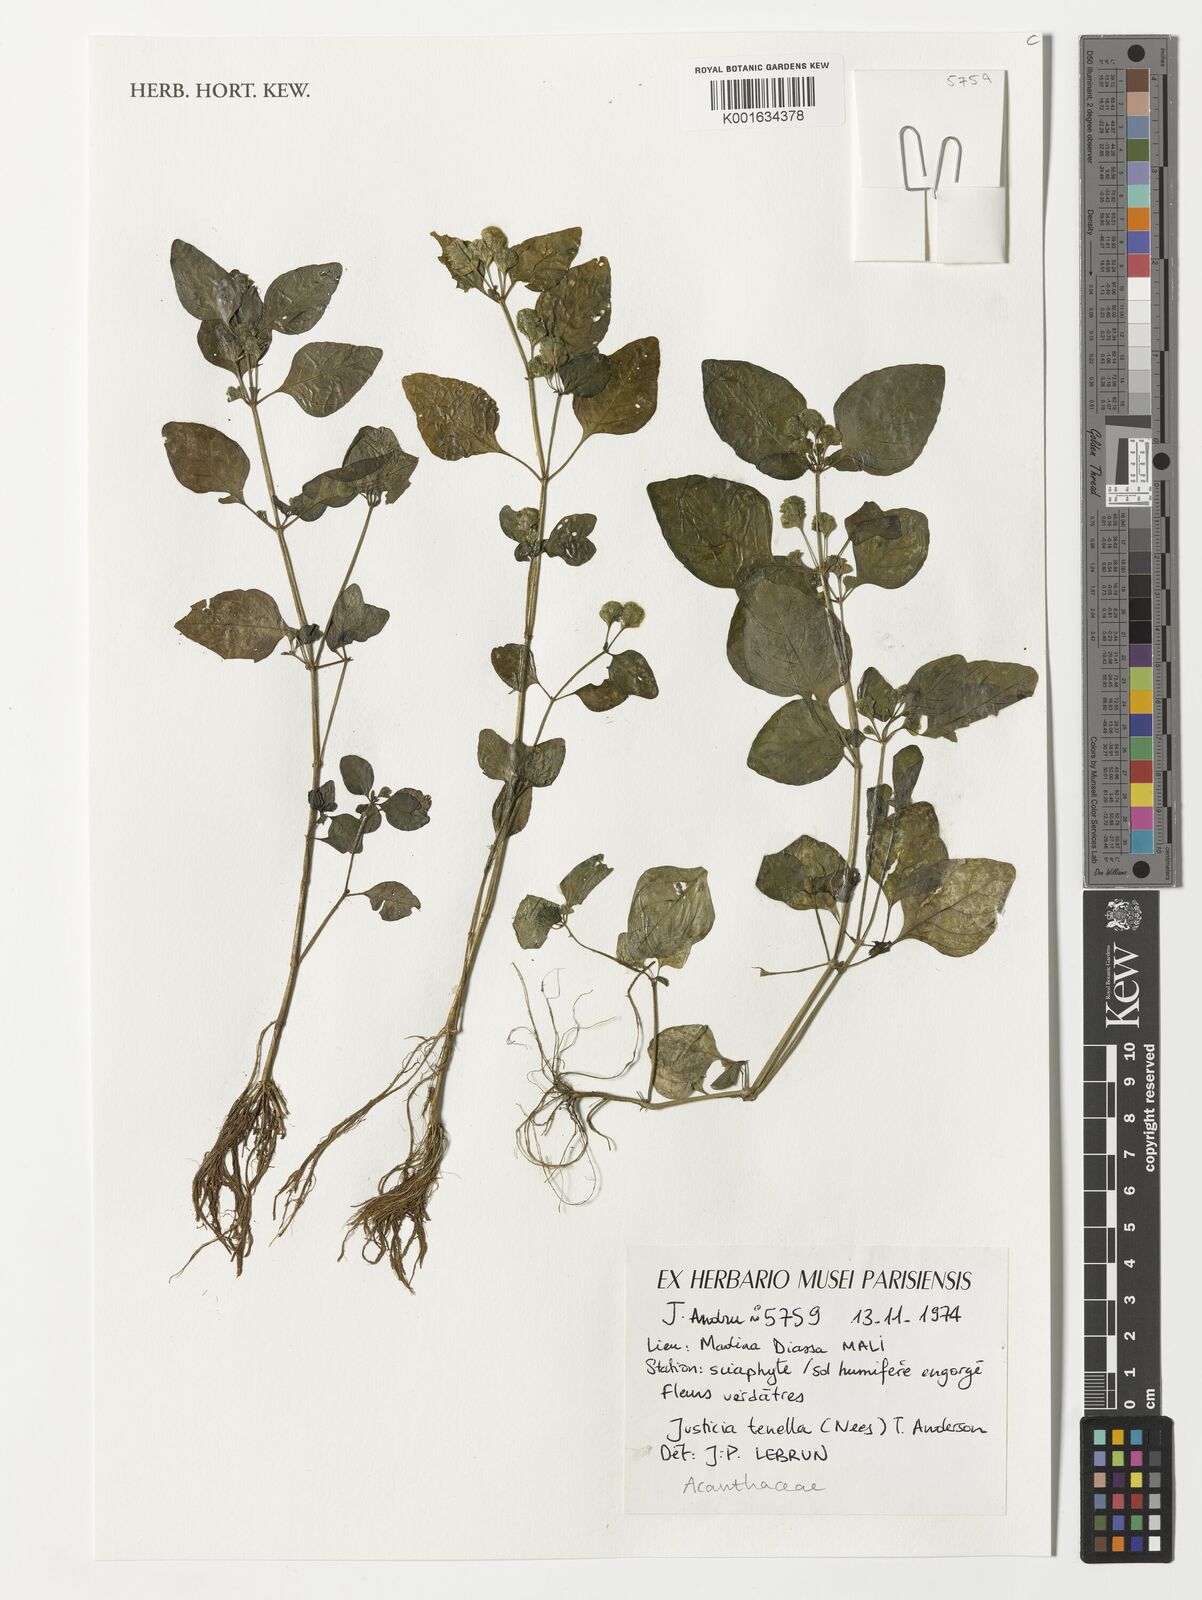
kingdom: Plantae
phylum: Tracheophyta
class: Magnoliopsida
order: Lamiales
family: Acanthaceae
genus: Anisostachya
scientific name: Anisostachya tenella
